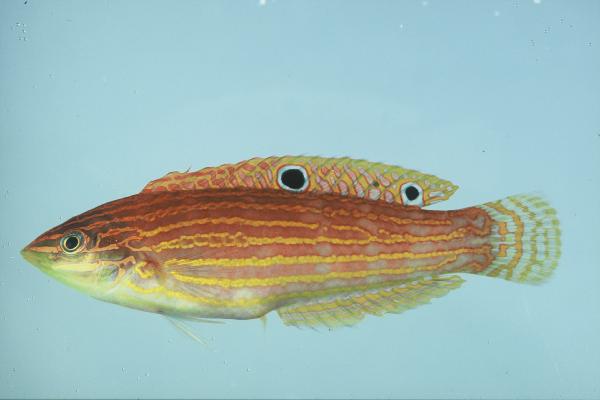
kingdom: Animalia
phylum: Chordata
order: Perciformes
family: Labridae
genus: Halichoeres
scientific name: Halichoeres cosmetus
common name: Adorned wrasse
